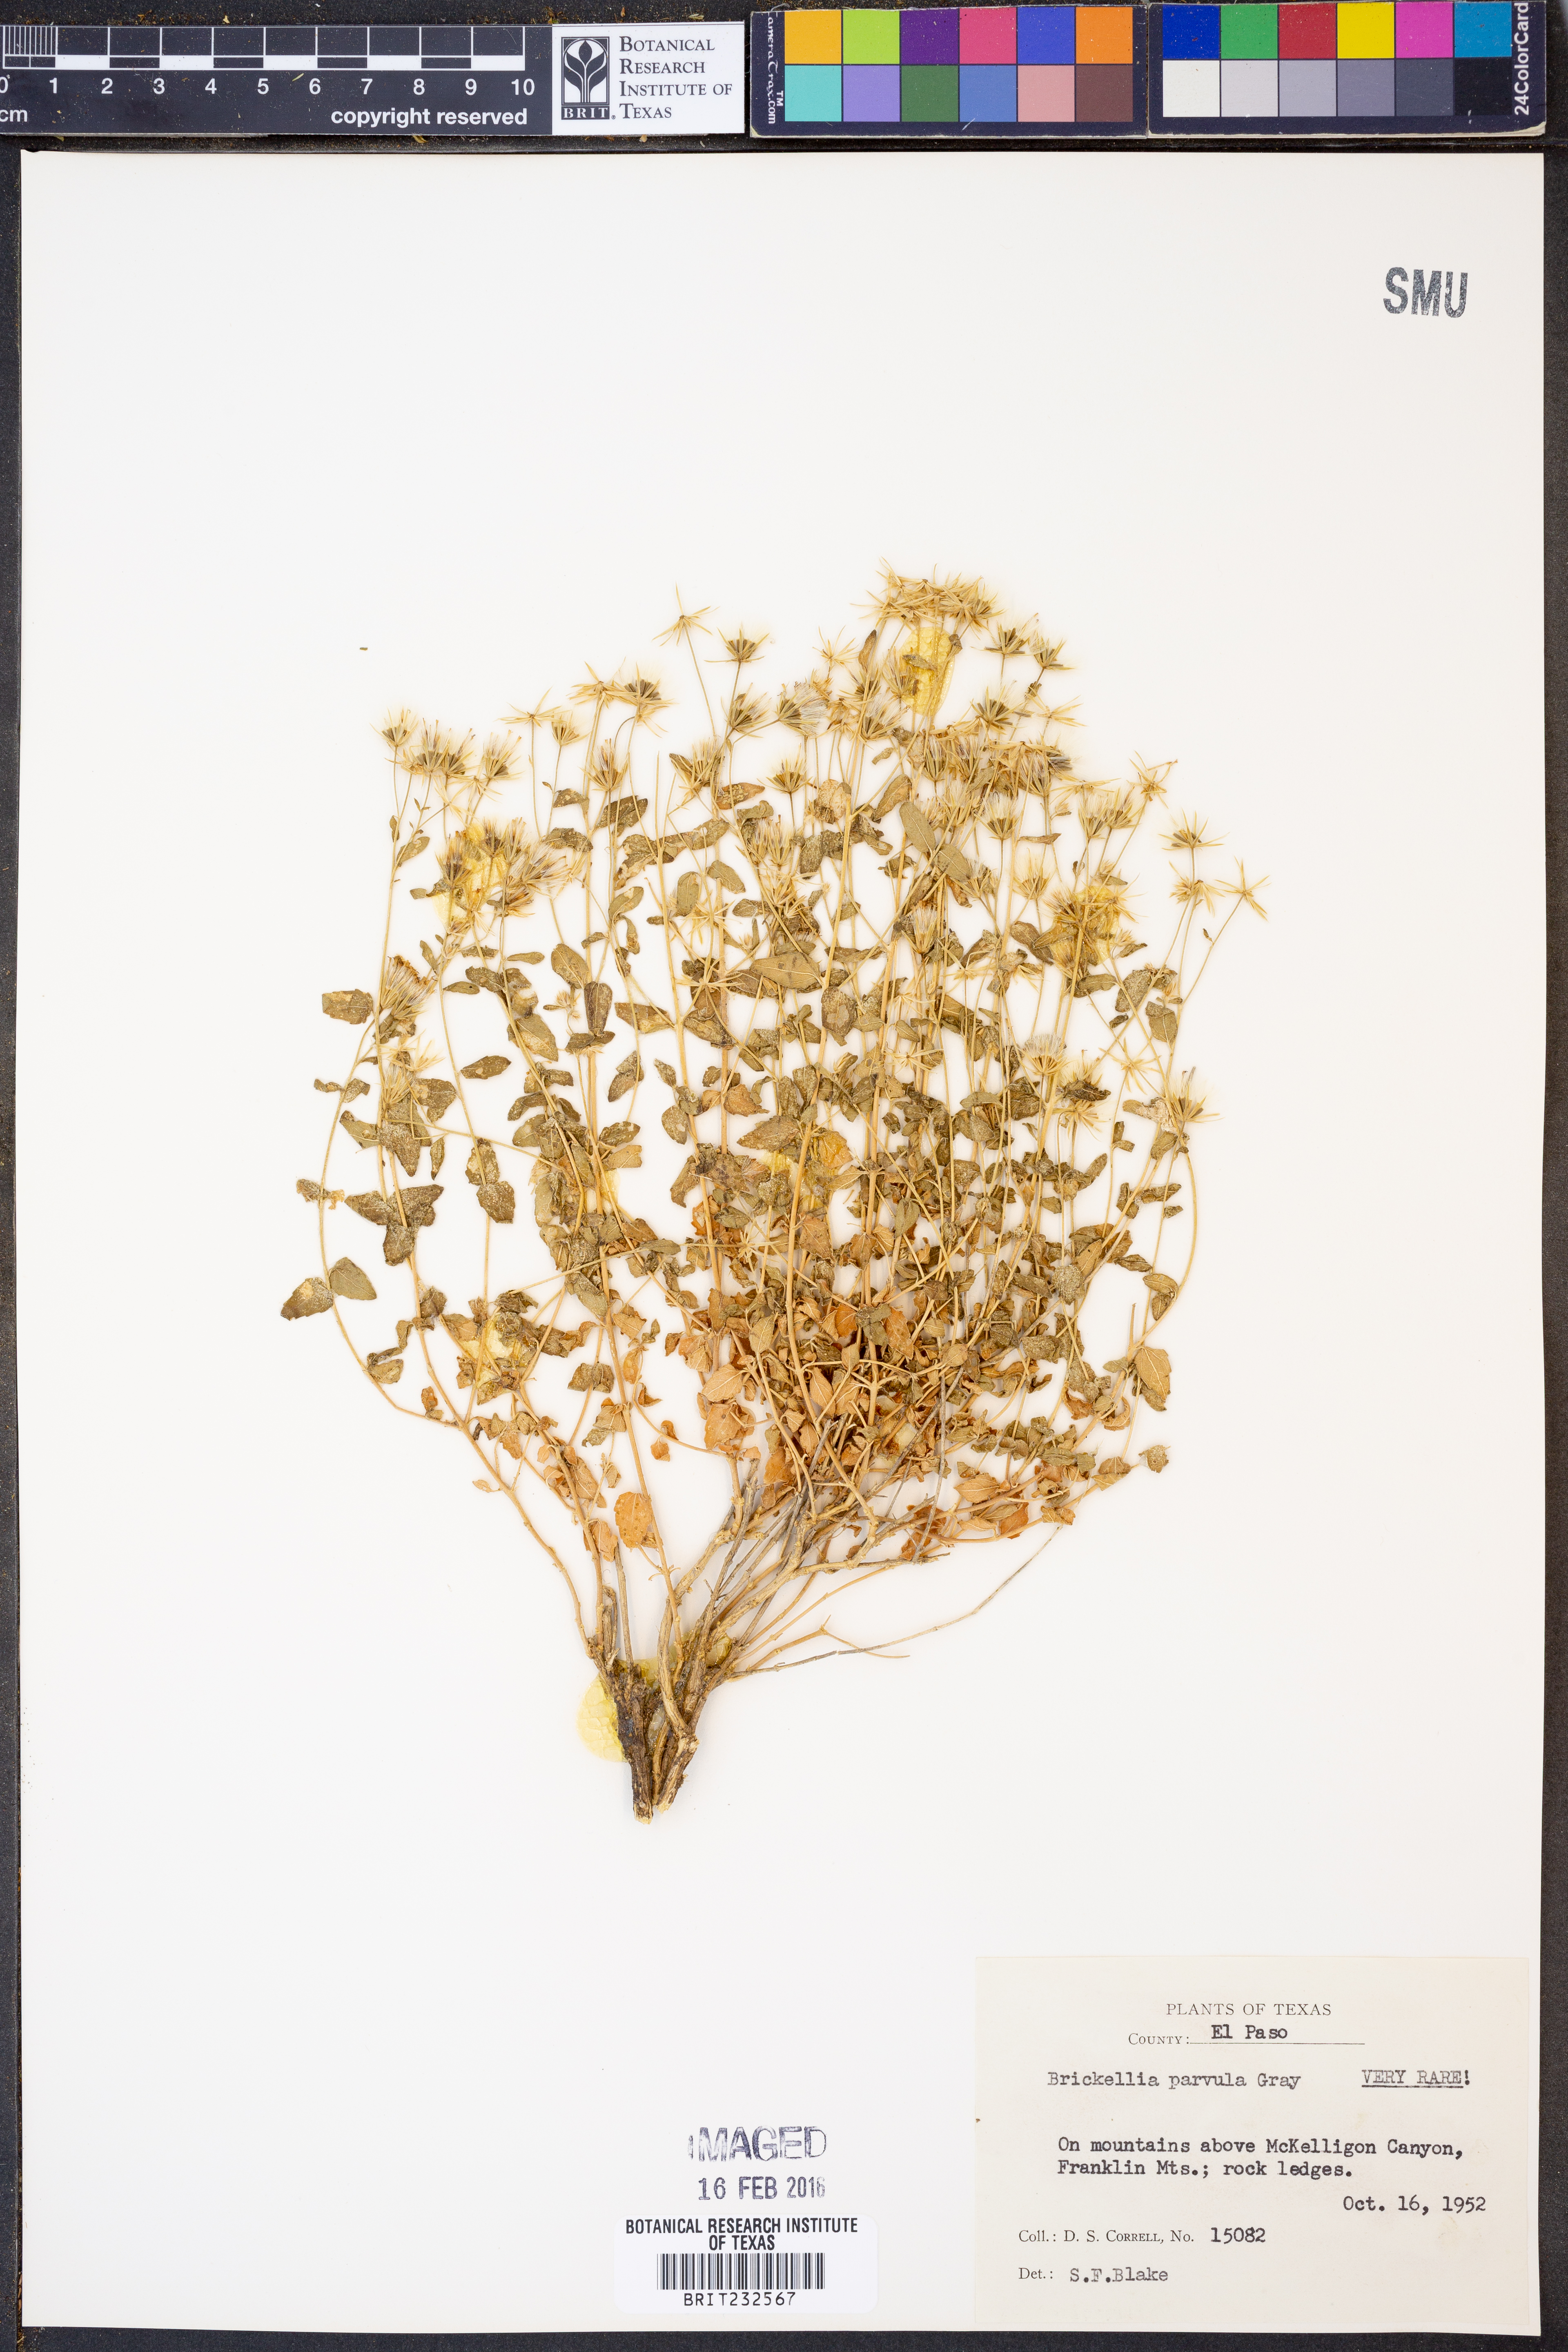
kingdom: Plantae
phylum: Tracheophyta
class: Magnoliopsida
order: Asterales
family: Asteraceae
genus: Brickellia
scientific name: Brickellia parvula
